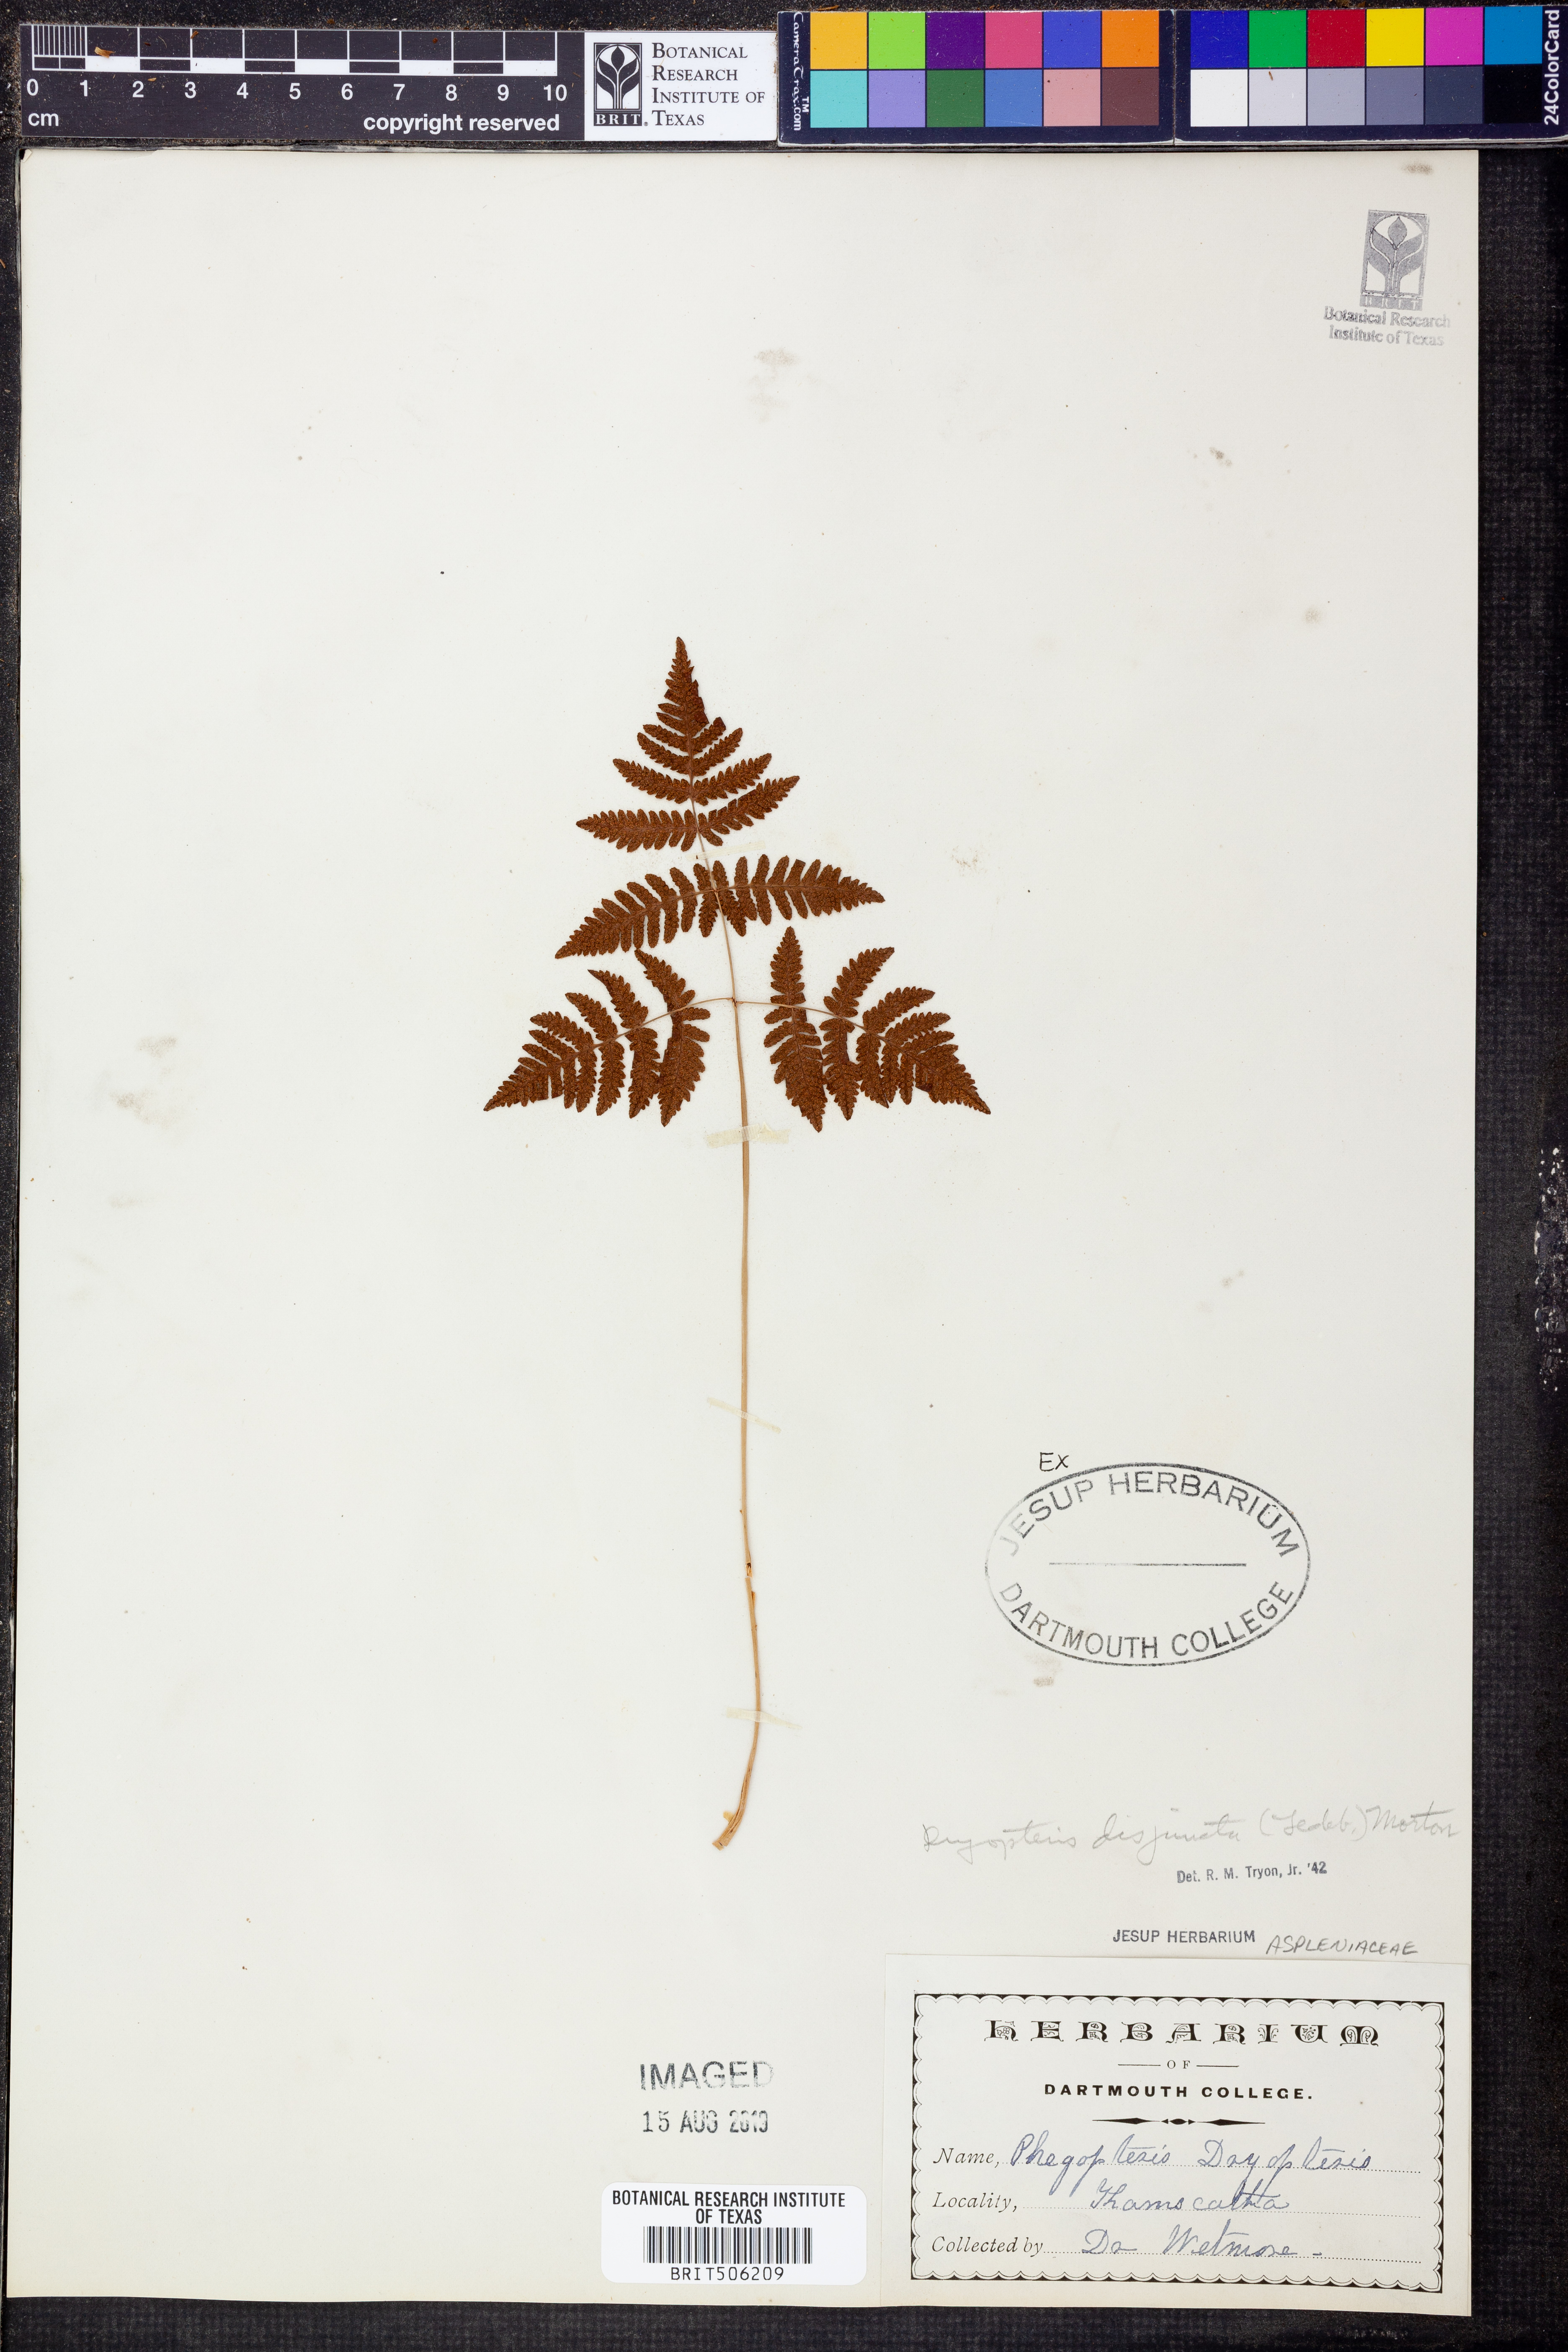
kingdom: Plantae
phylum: Tracheophyta
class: Polypodiopsida
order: Polypodiales
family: Cystopteridaceae
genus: Gymnocarpium
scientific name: Gymnocarpium disjunctum
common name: Western oak fern
